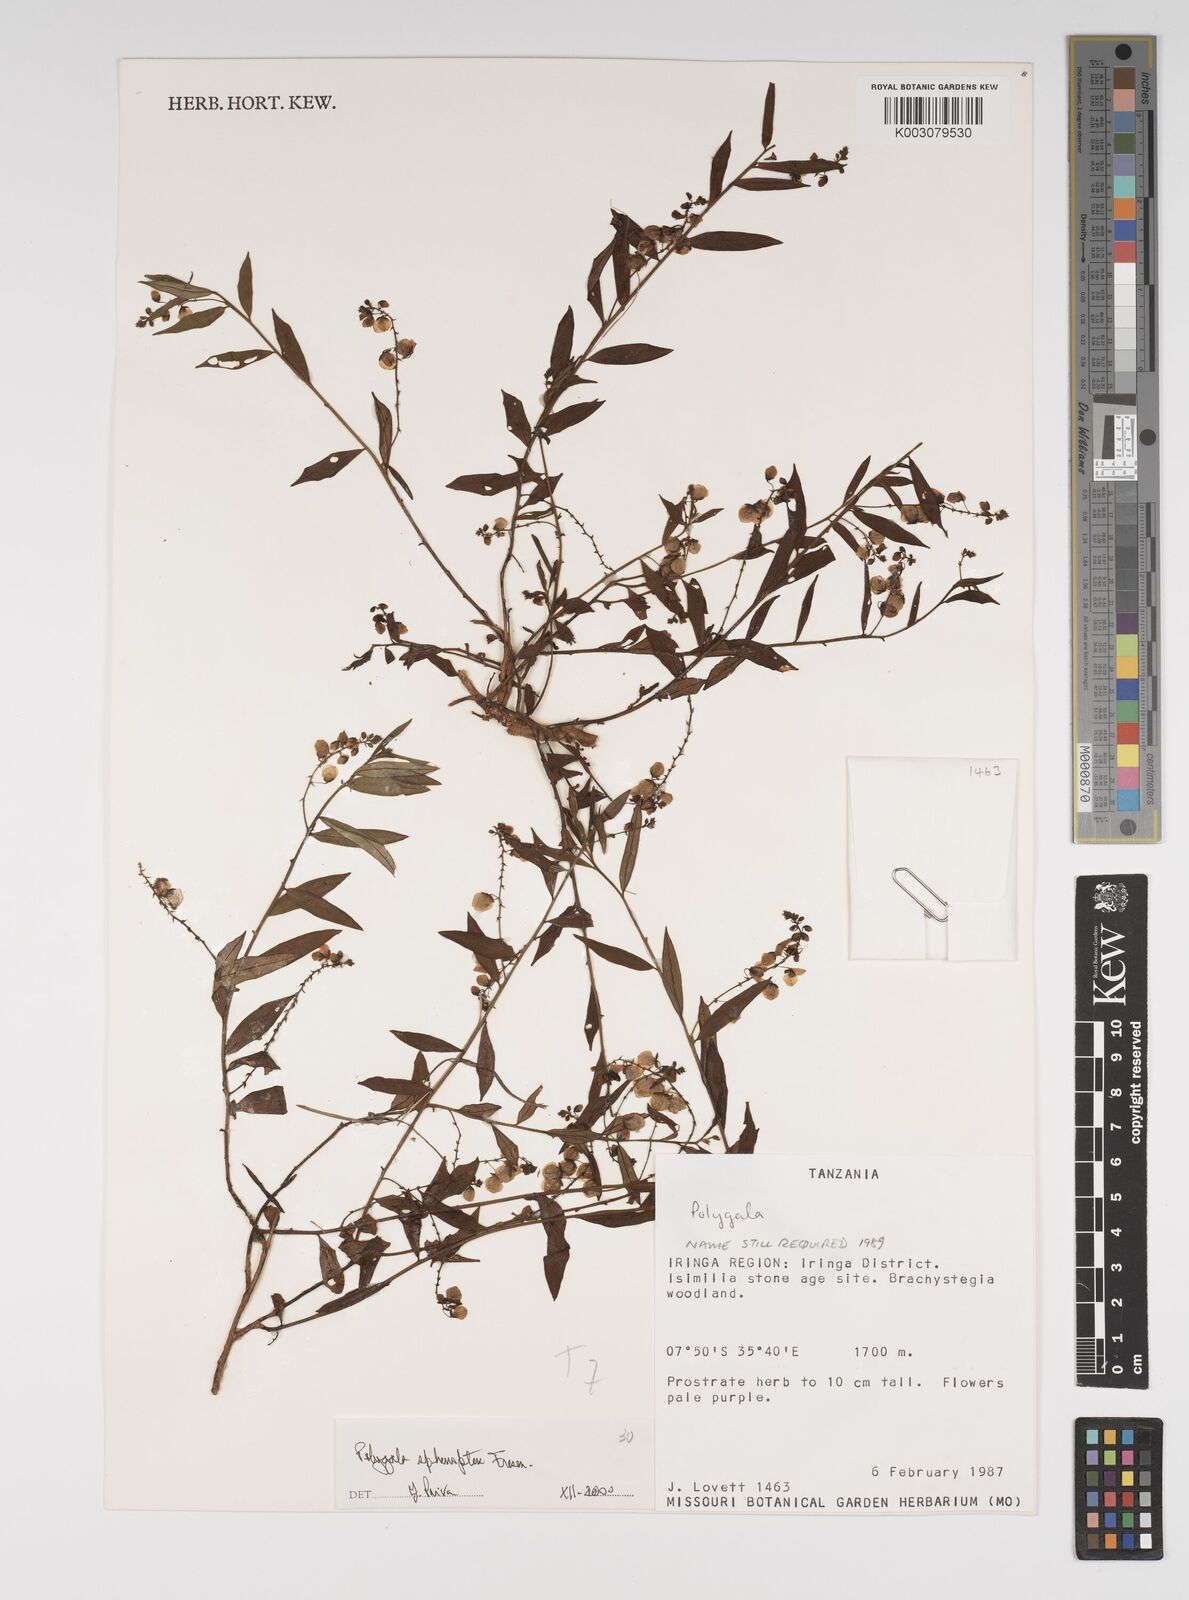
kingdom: Plantae
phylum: Tracheophyta
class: Magnoliopsida
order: Fabales
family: Polygalaceae
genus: Polygala
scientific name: Polygala sphenoptera
